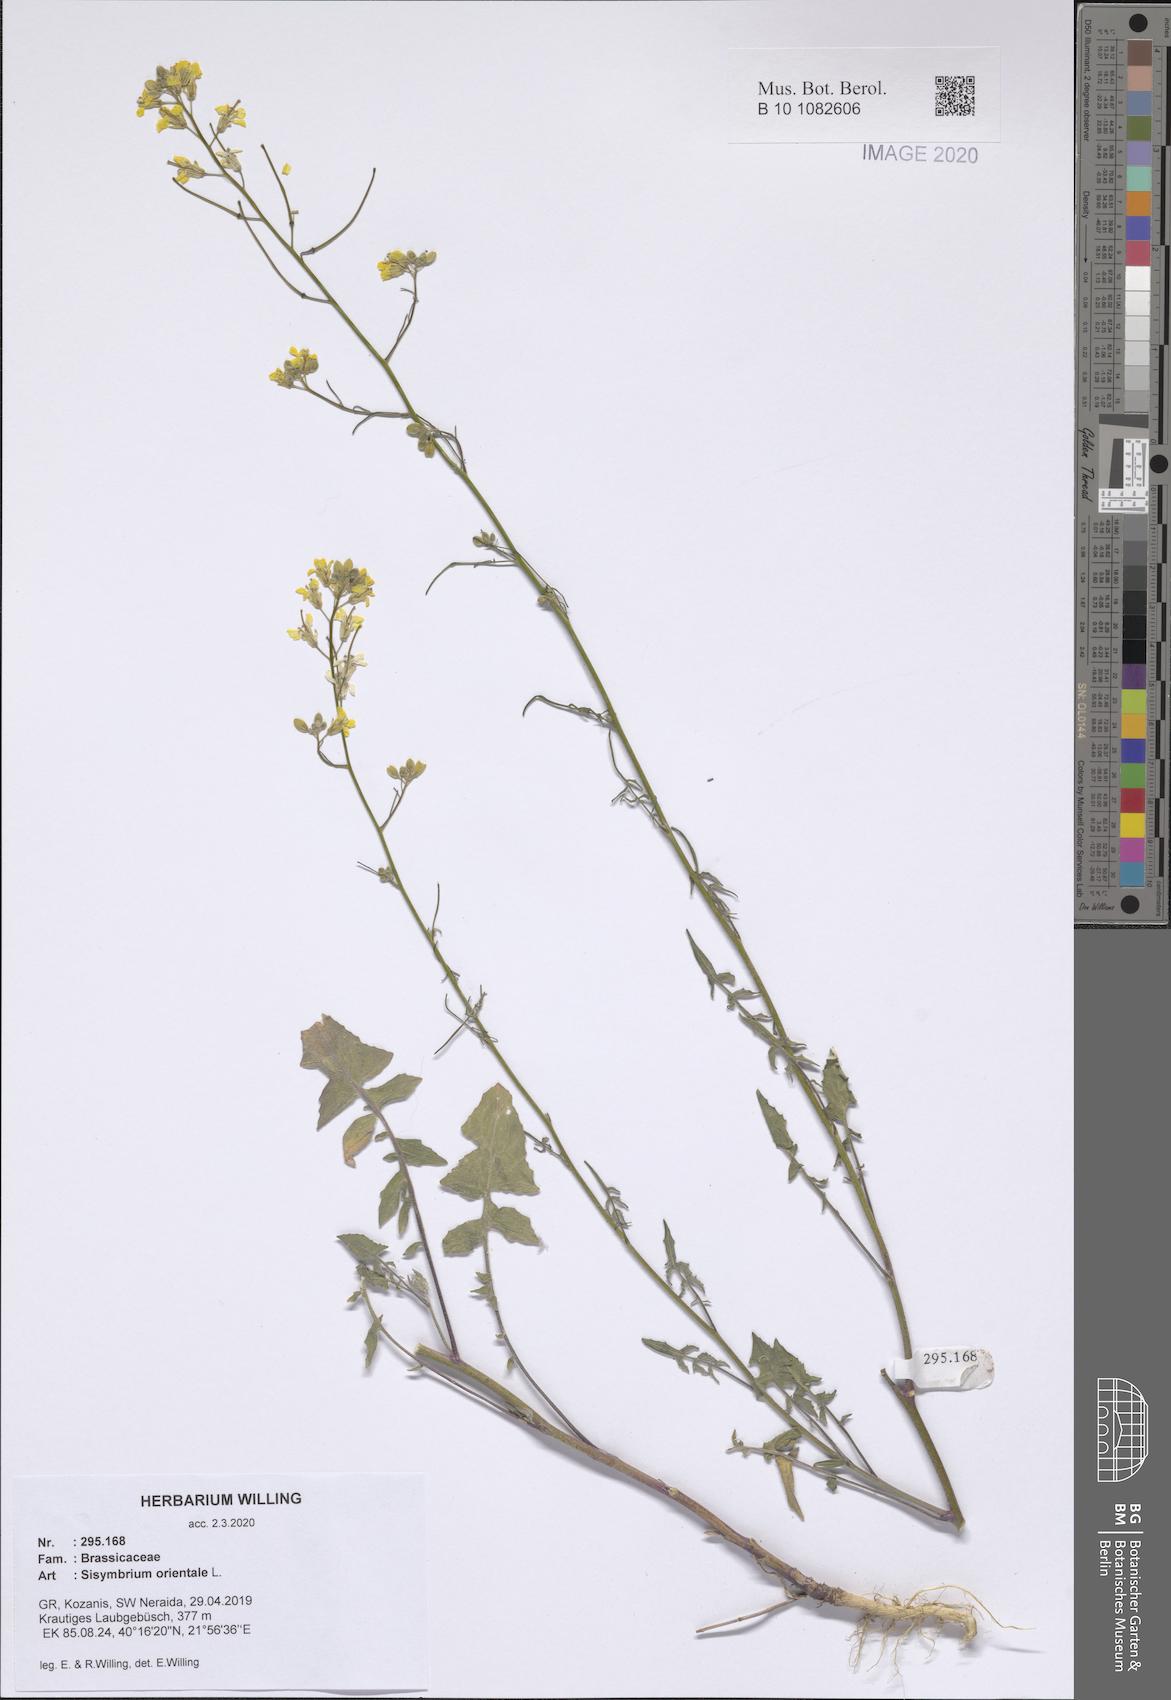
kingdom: Plantae
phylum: Tracheophyta
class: Magnoliopsida
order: Brassicales
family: Brassicaceae
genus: Sisymbrium
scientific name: Sisymbrium orientale
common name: Eastern rocket
